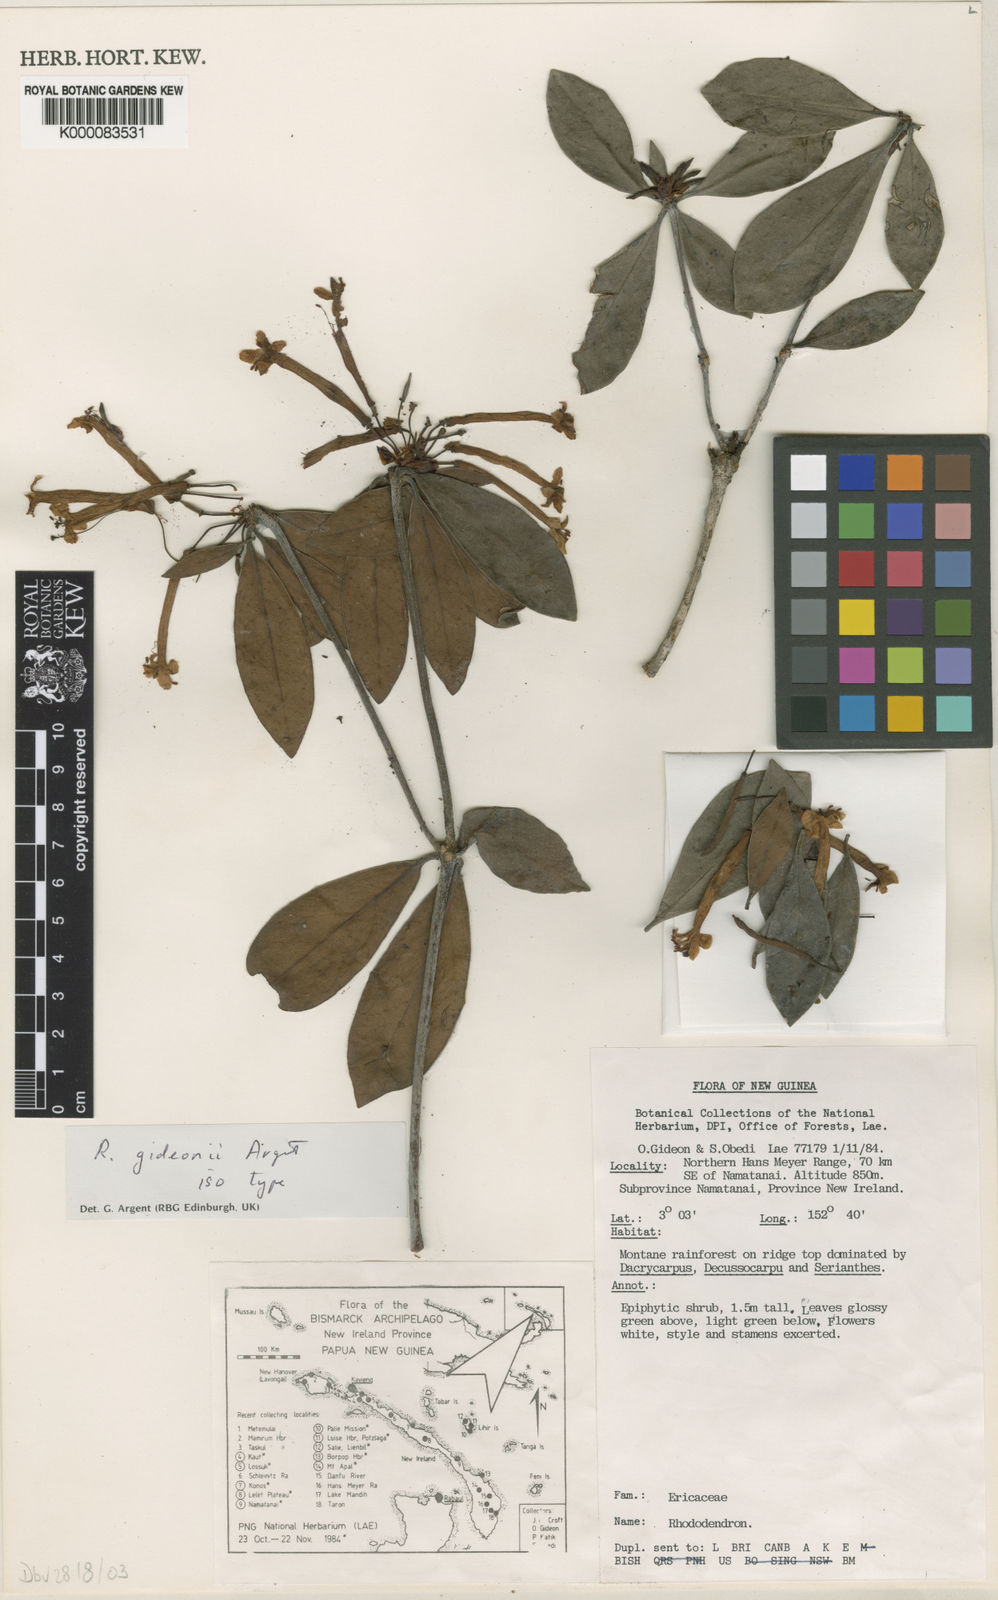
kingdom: Plantae
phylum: Tracheophyta
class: Magnoliopsida
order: Ericales
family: Ericaceae
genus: Rhododendron
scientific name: Rhododendron gideonii
